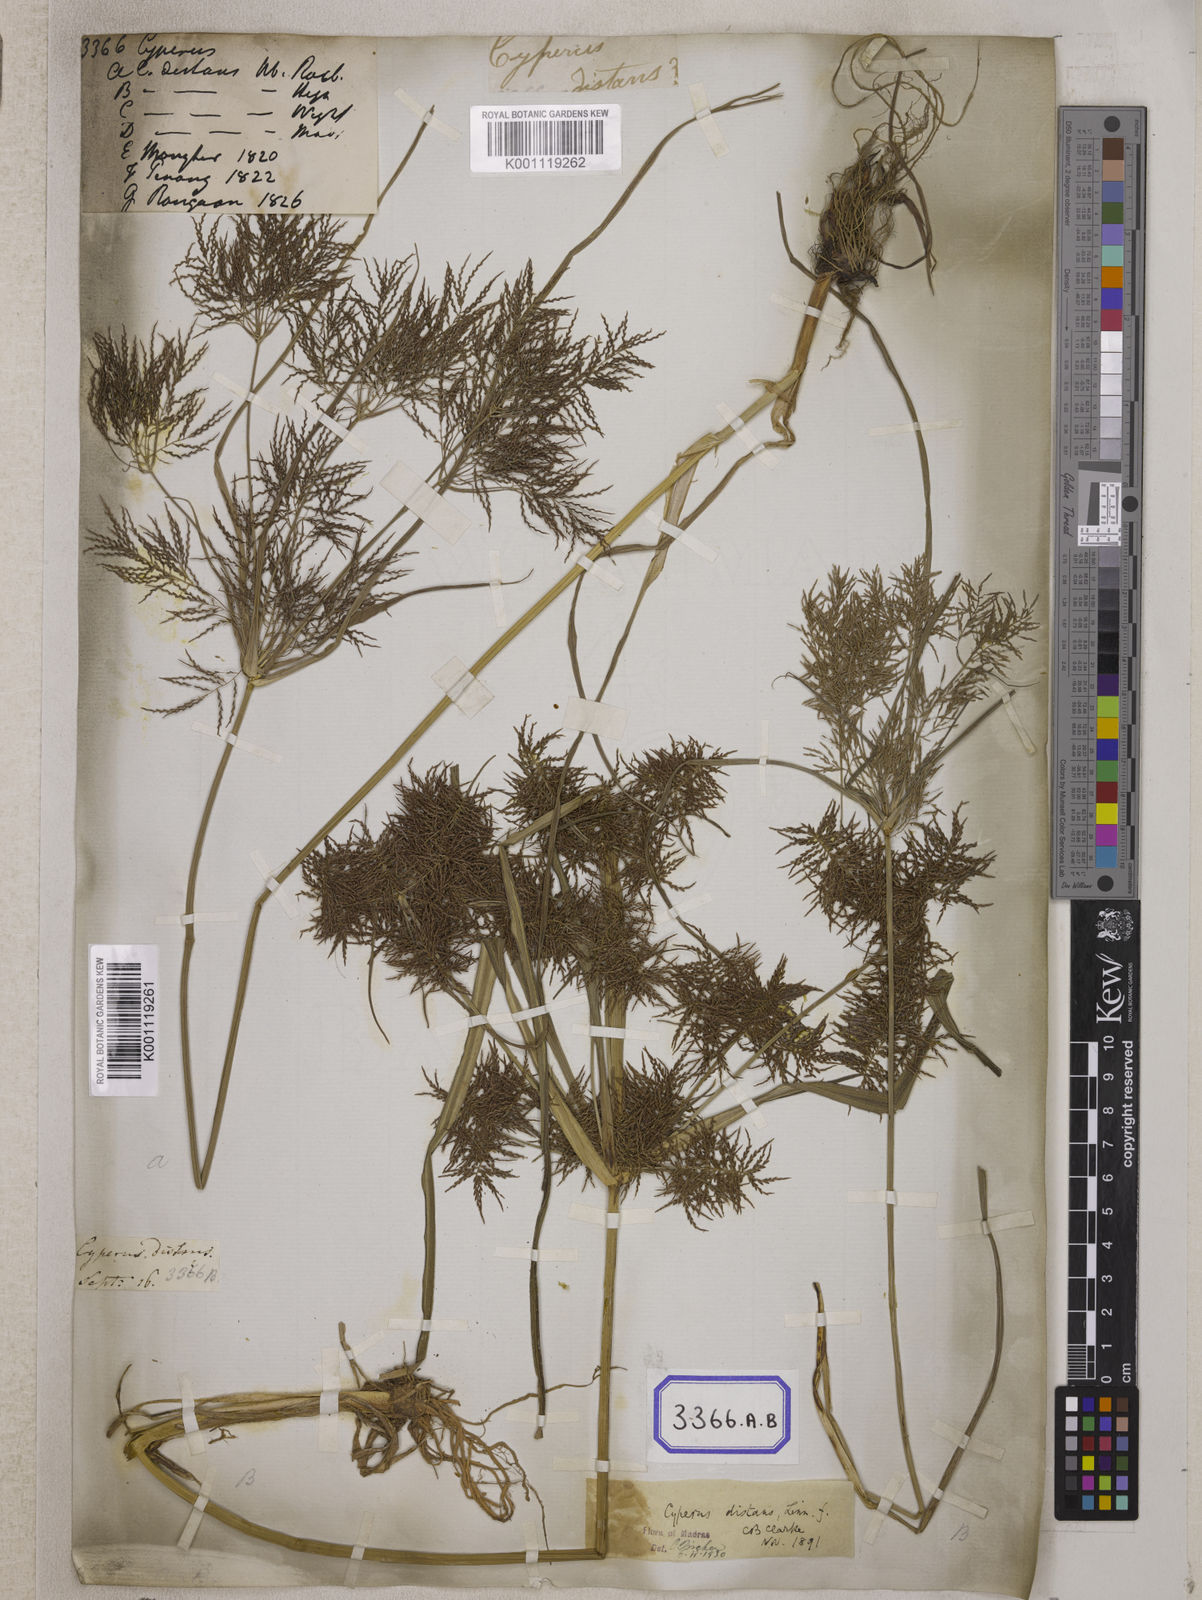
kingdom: Plantae
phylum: Tracheophyta
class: Liliopsida
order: Poales
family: Cyperaceae
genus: Cyperus
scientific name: Cyperus
